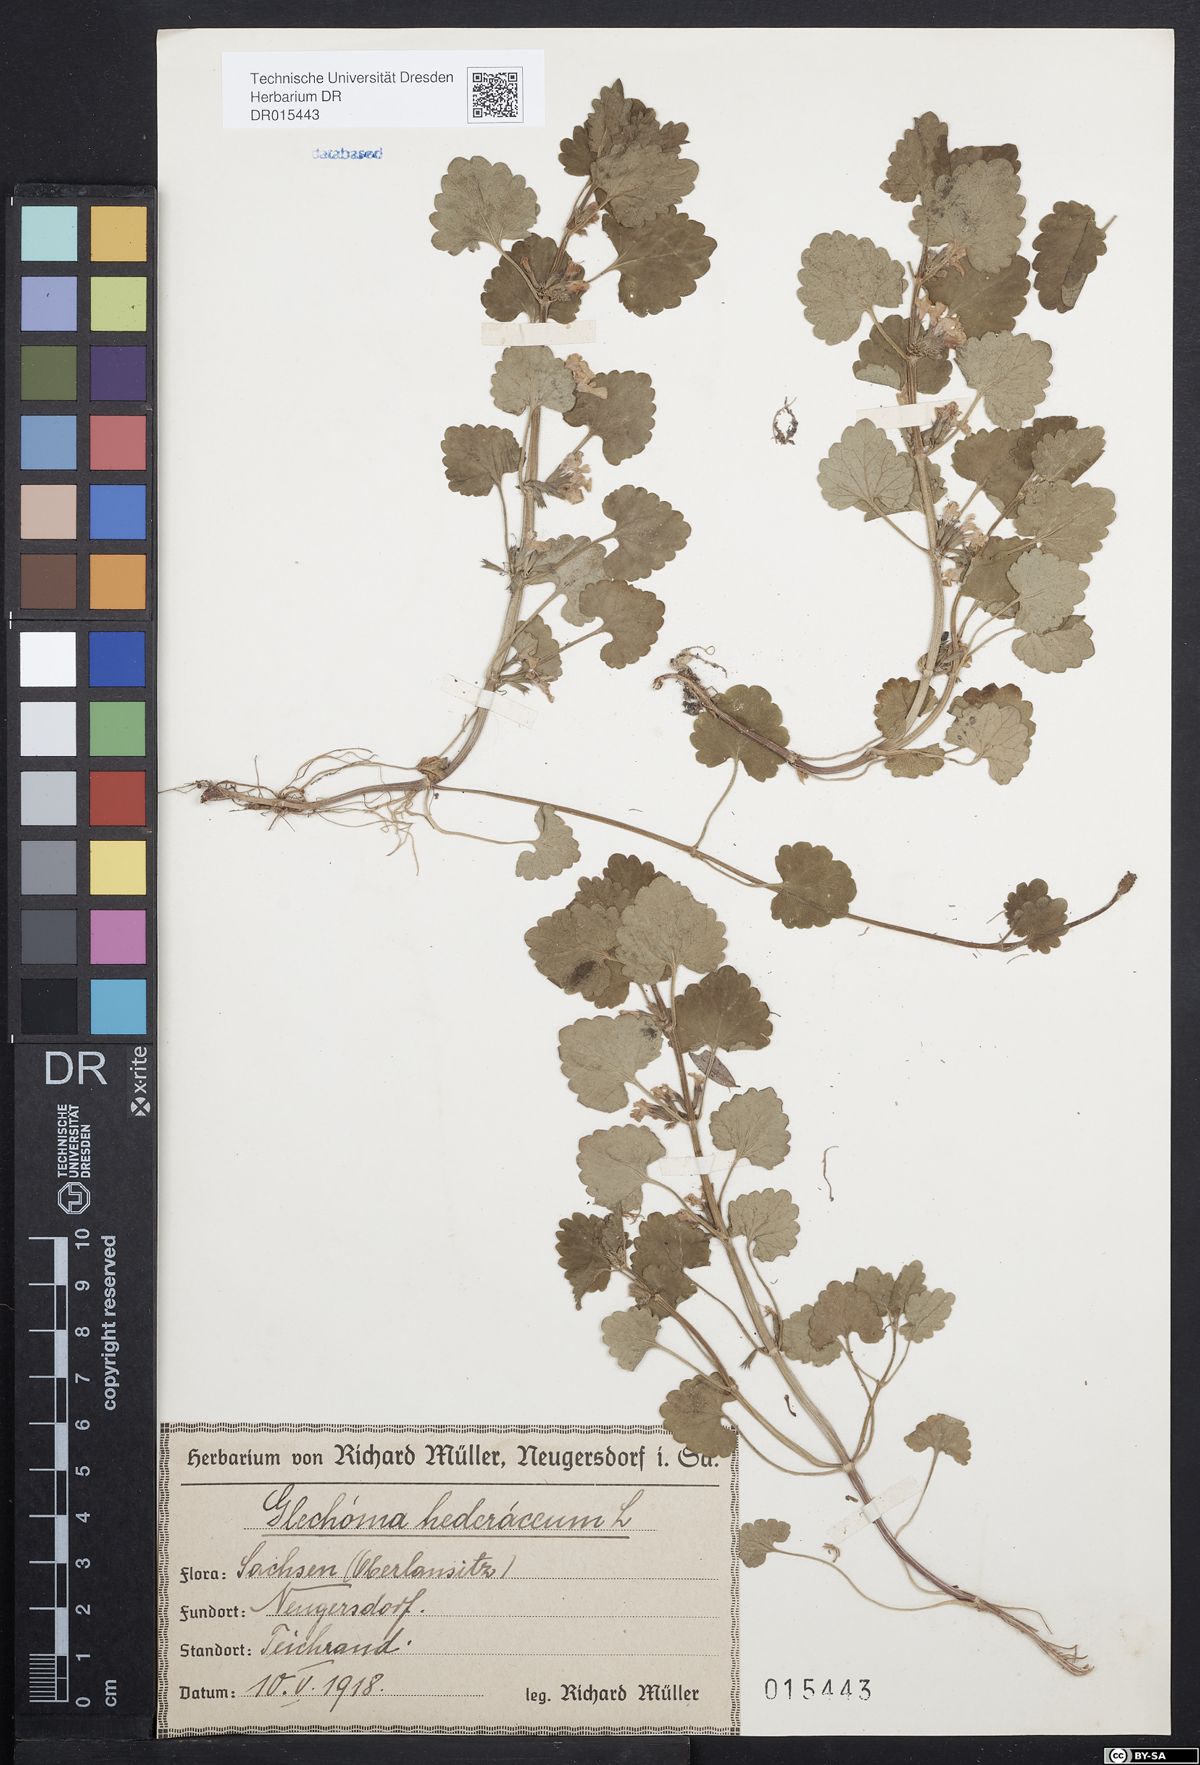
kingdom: Plantae
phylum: Tracheophyta
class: Magnoliopsida
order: Lamiales
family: Lamiaceae
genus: Glechoma
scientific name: Glechoma hederacea
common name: Ground ivy
